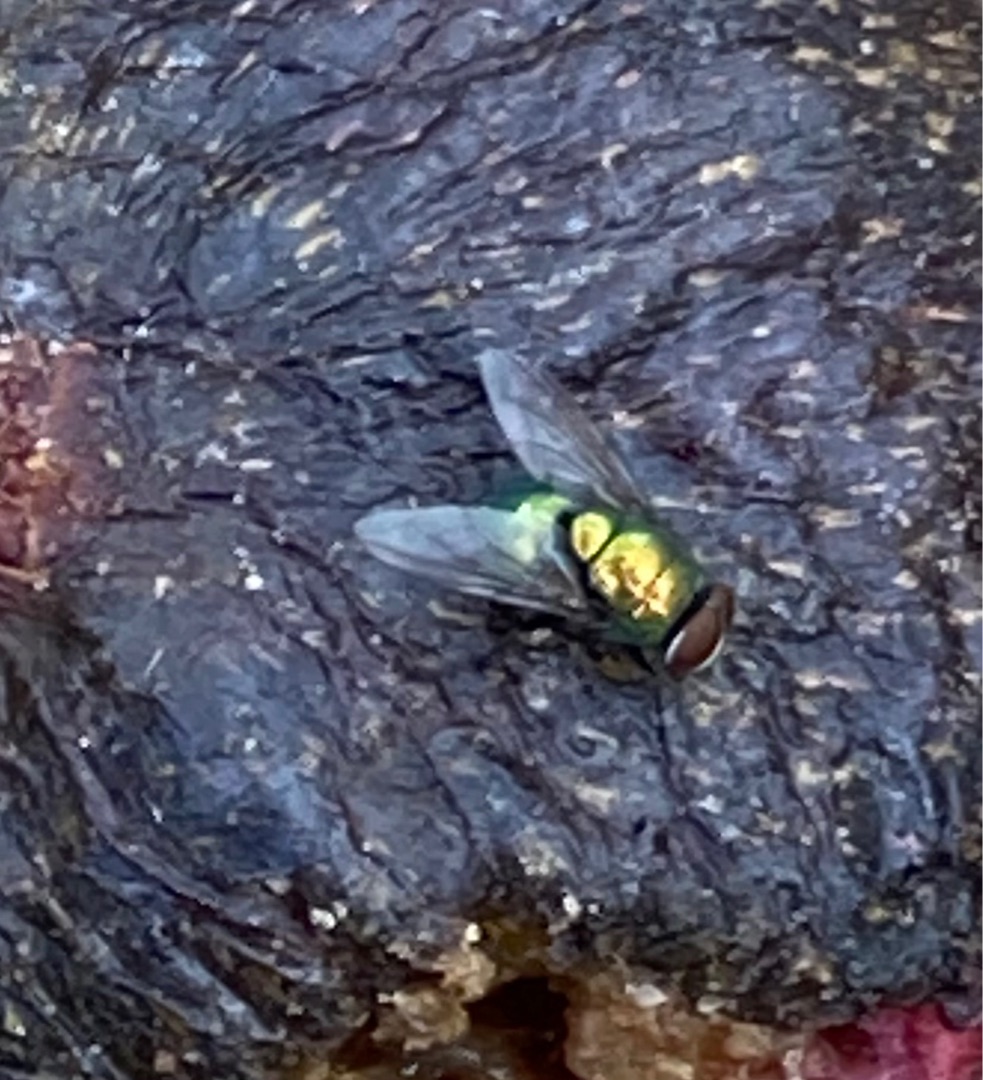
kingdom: Animalia
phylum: Arthropoda
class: Insecta
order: Diptera
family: Calliphoridae
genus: Lucilia
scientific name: Lucilia
